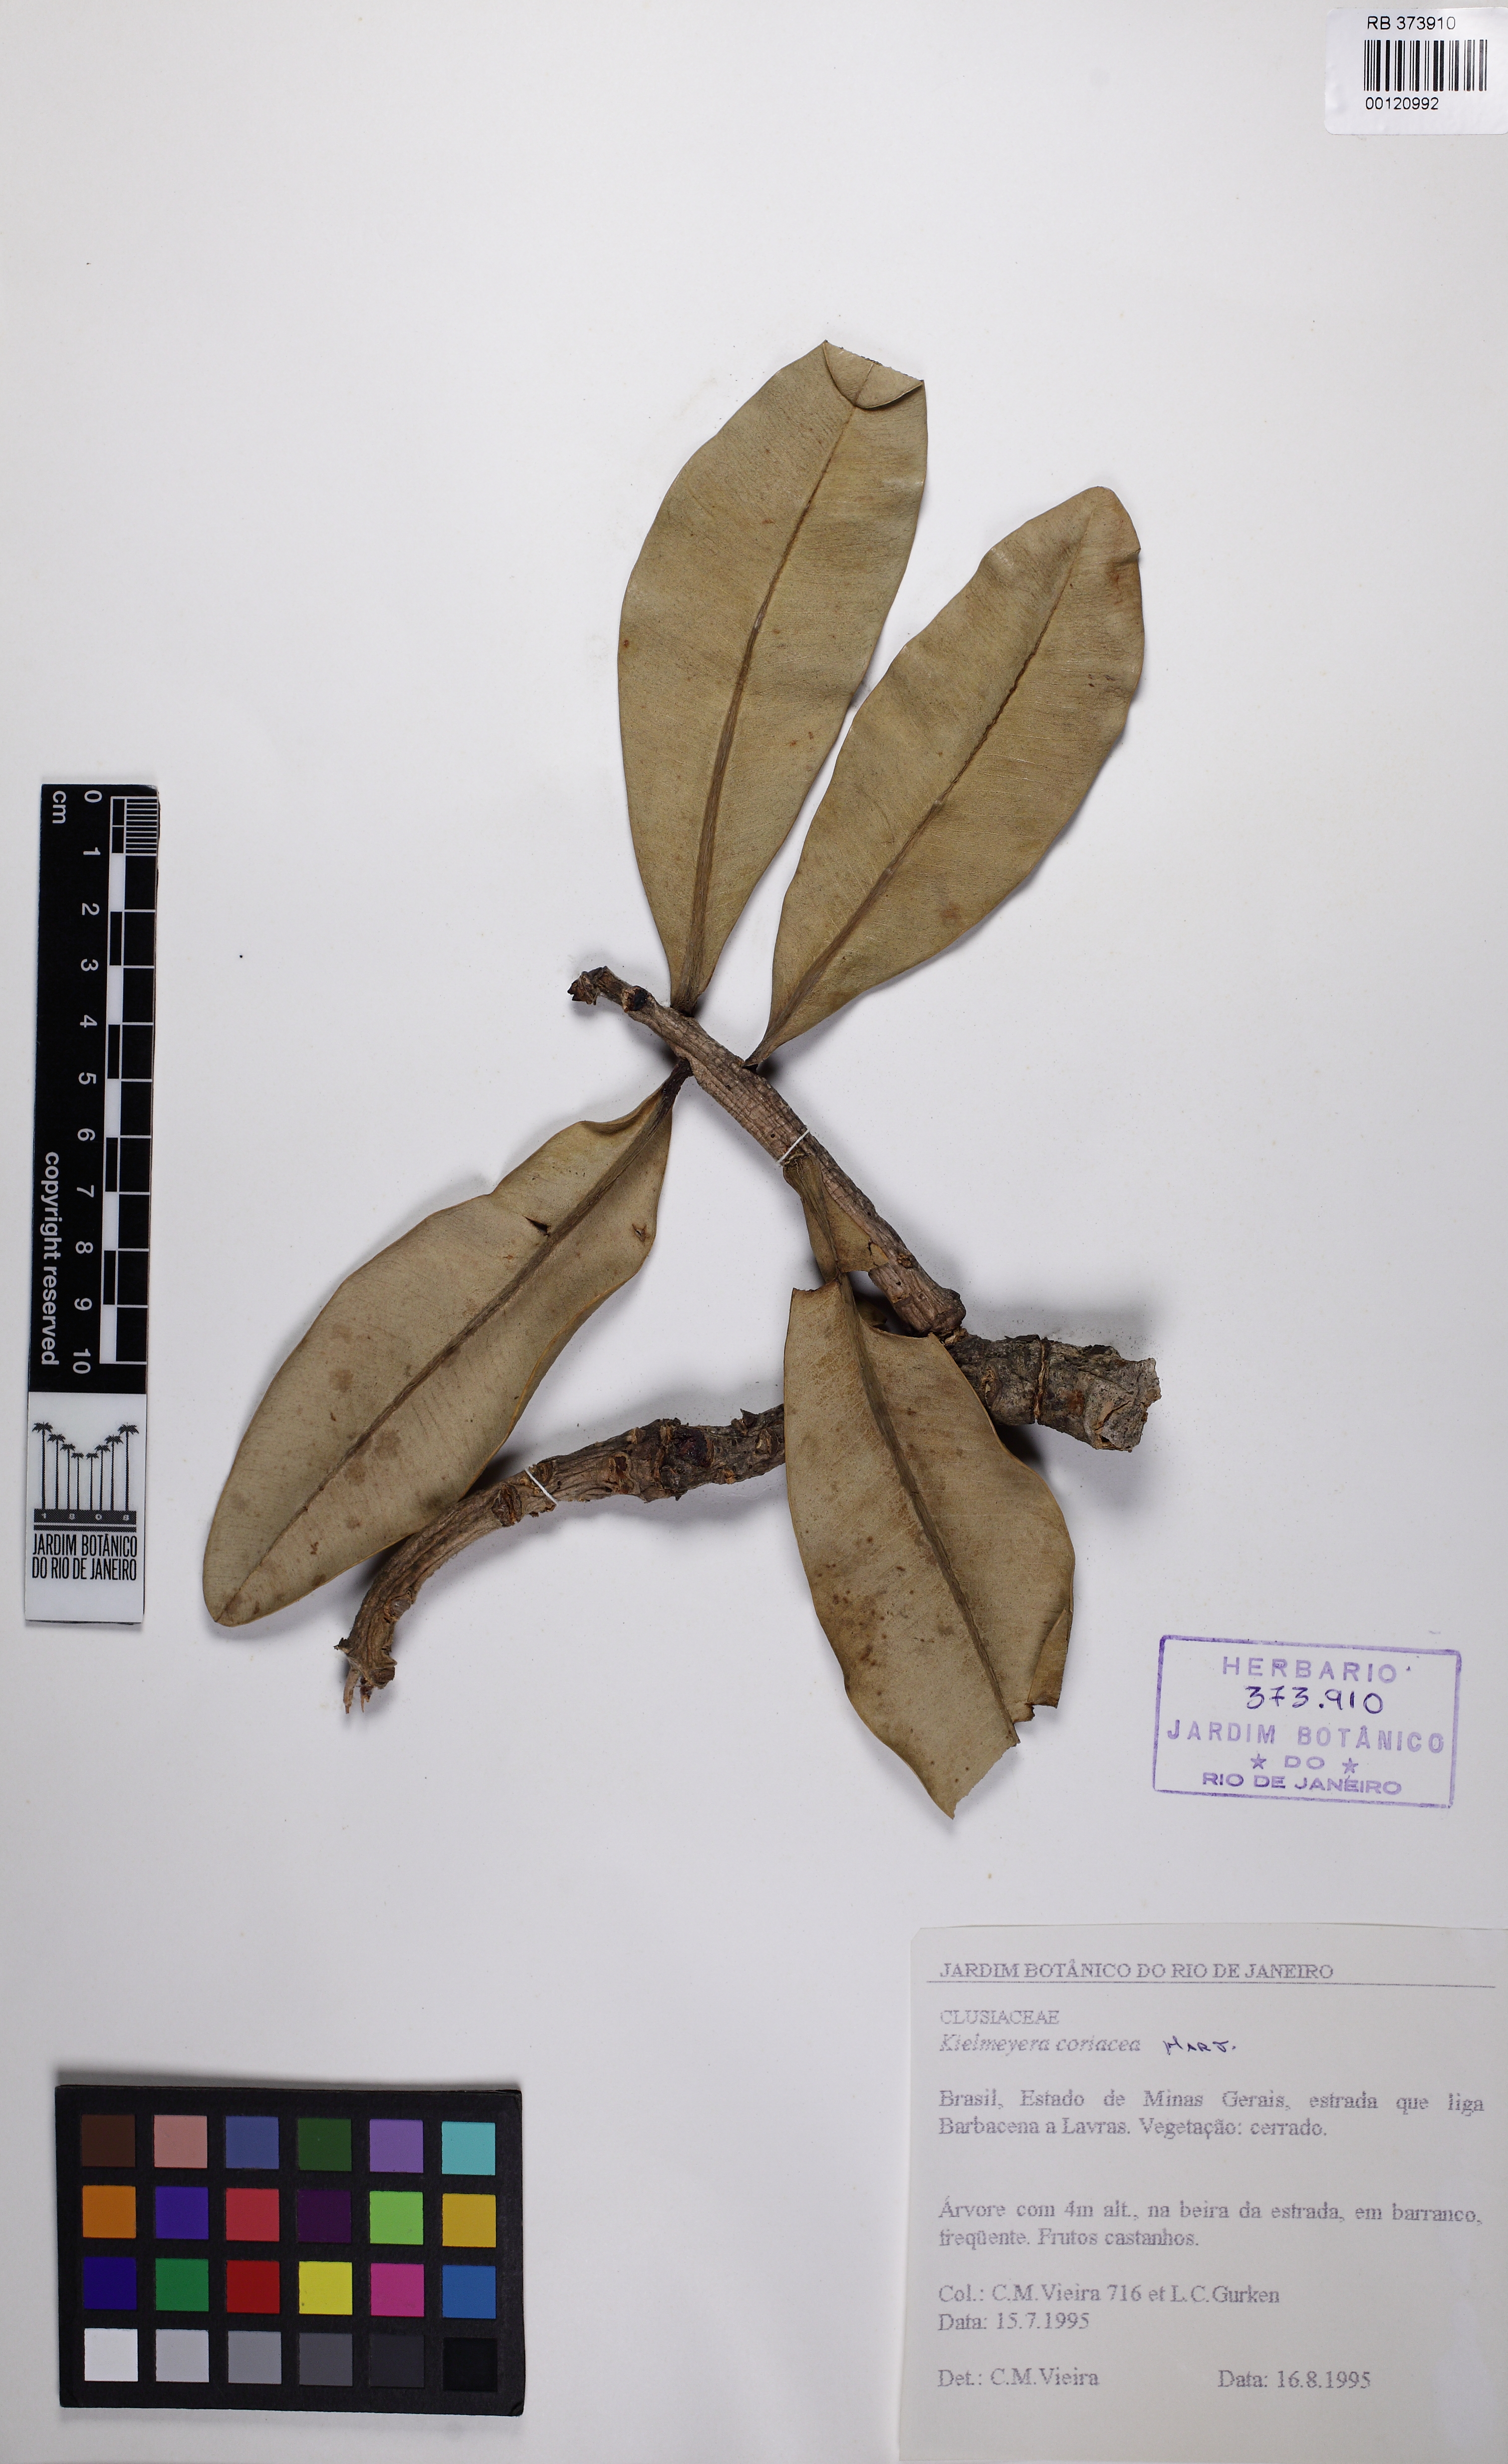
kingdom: Plantae
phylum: Tracheophyta
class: Magnoliopsida
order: Malpighiales
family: Calophyllaceae
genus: Kielmeyera
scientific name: Kielmeyera coriacea
